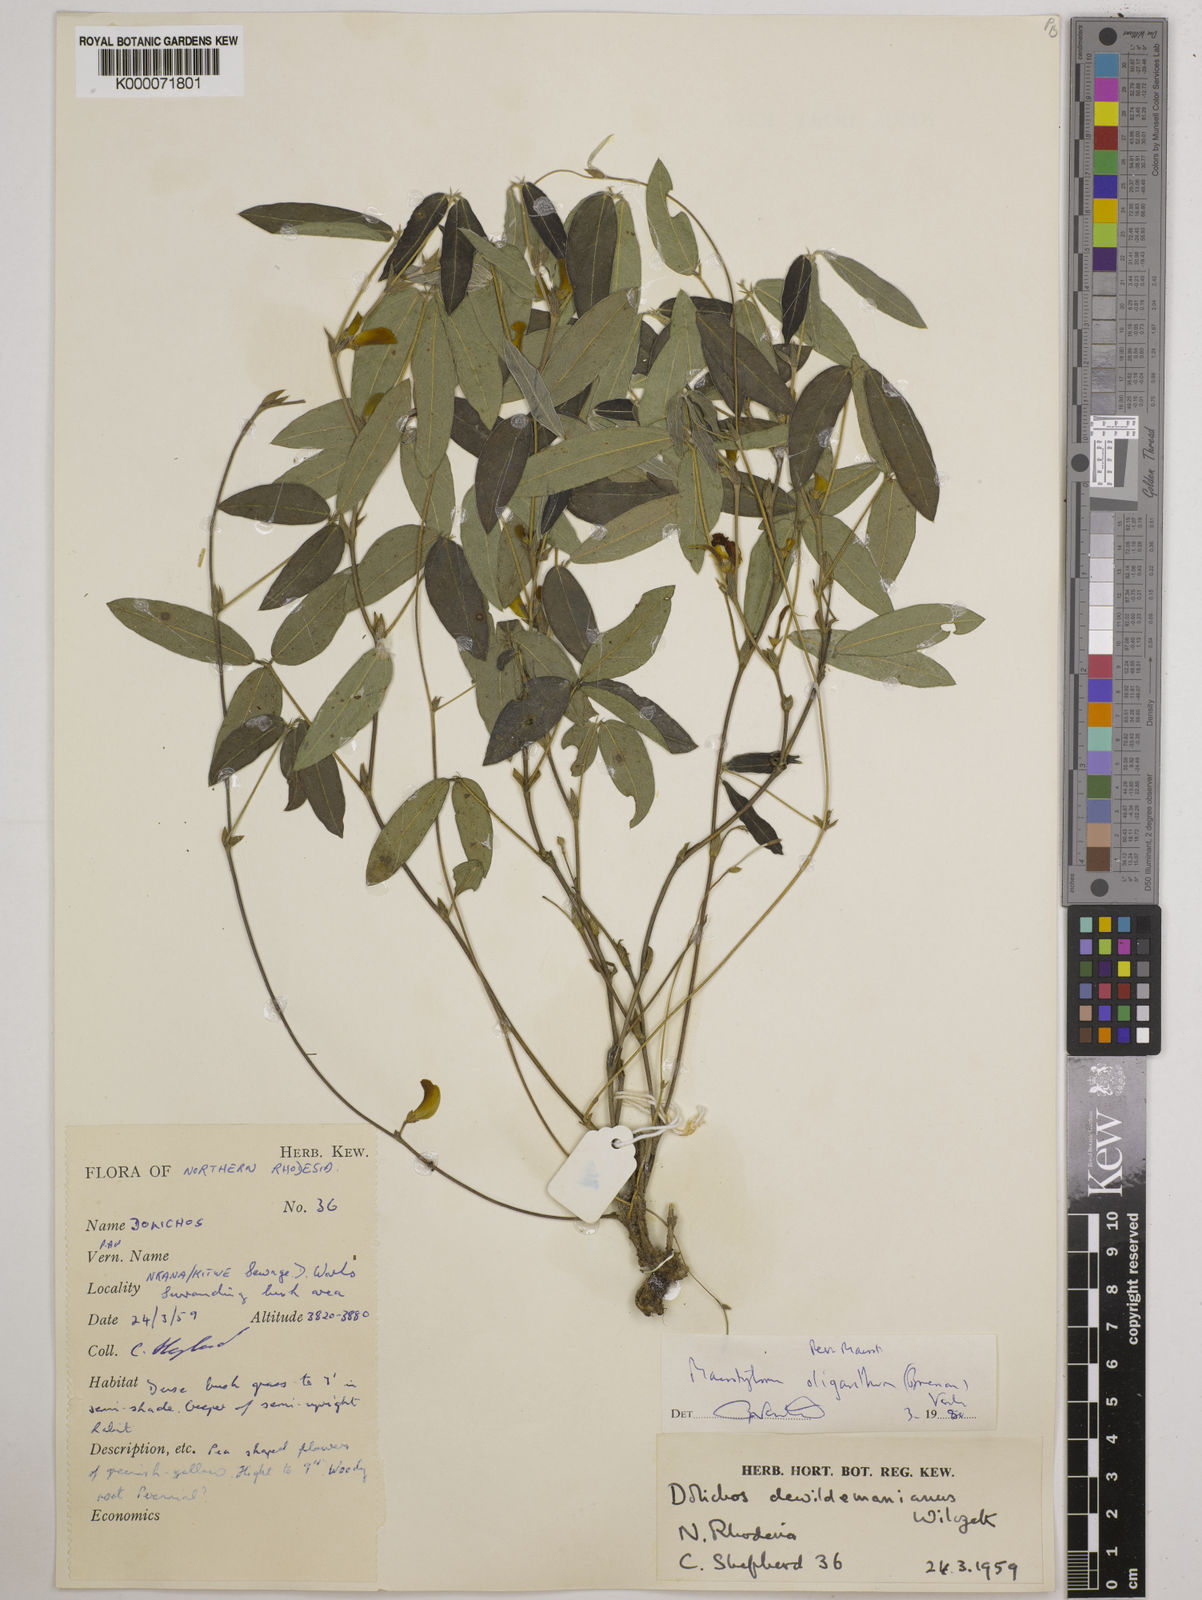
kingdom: Plantae
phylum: Tracheophyta
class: Magnoliopsida
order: Fabales
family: Fabaceae
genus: Macrotyloma
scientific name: Macrotyloma oliganthum
